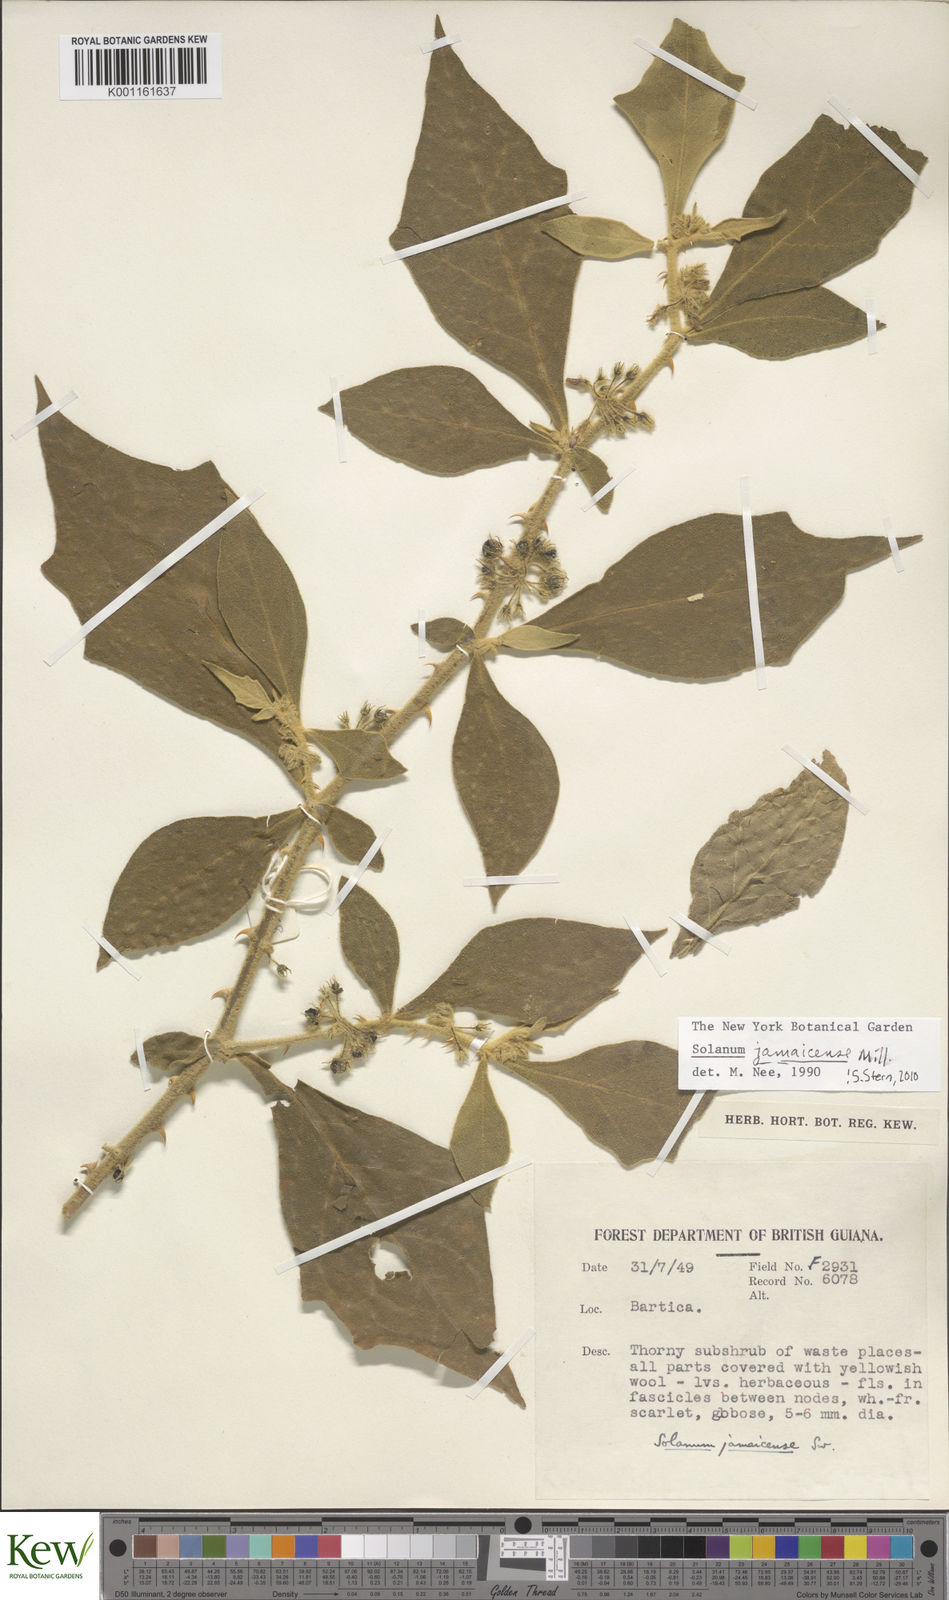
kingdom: Plantae
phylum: Tracheophyta
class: Magnoliopsida
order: Solanales
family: Solanaceae
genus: Solanum
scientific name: Solanum jamaicense
